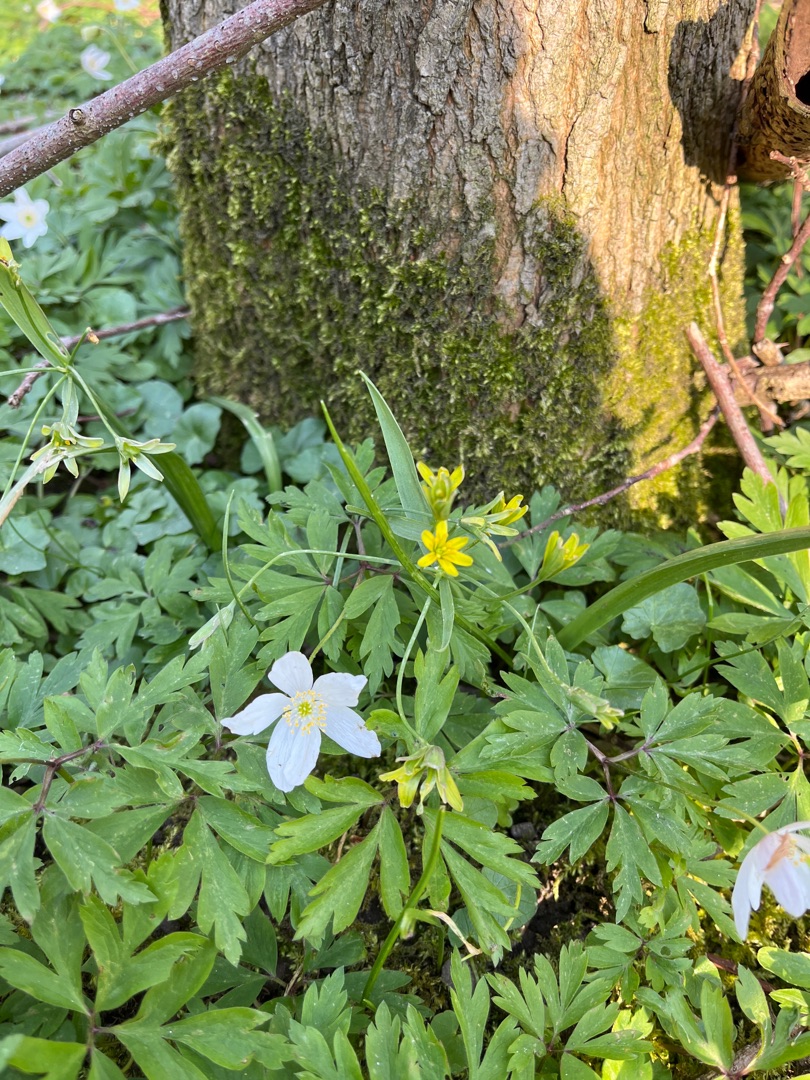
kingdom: Plantae
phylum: Tracheophyta
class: Liliopsida
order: Liliales
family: Liliaceae
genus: Gagea
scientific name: Gagea lutea
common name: Almindelig guldstjerne
